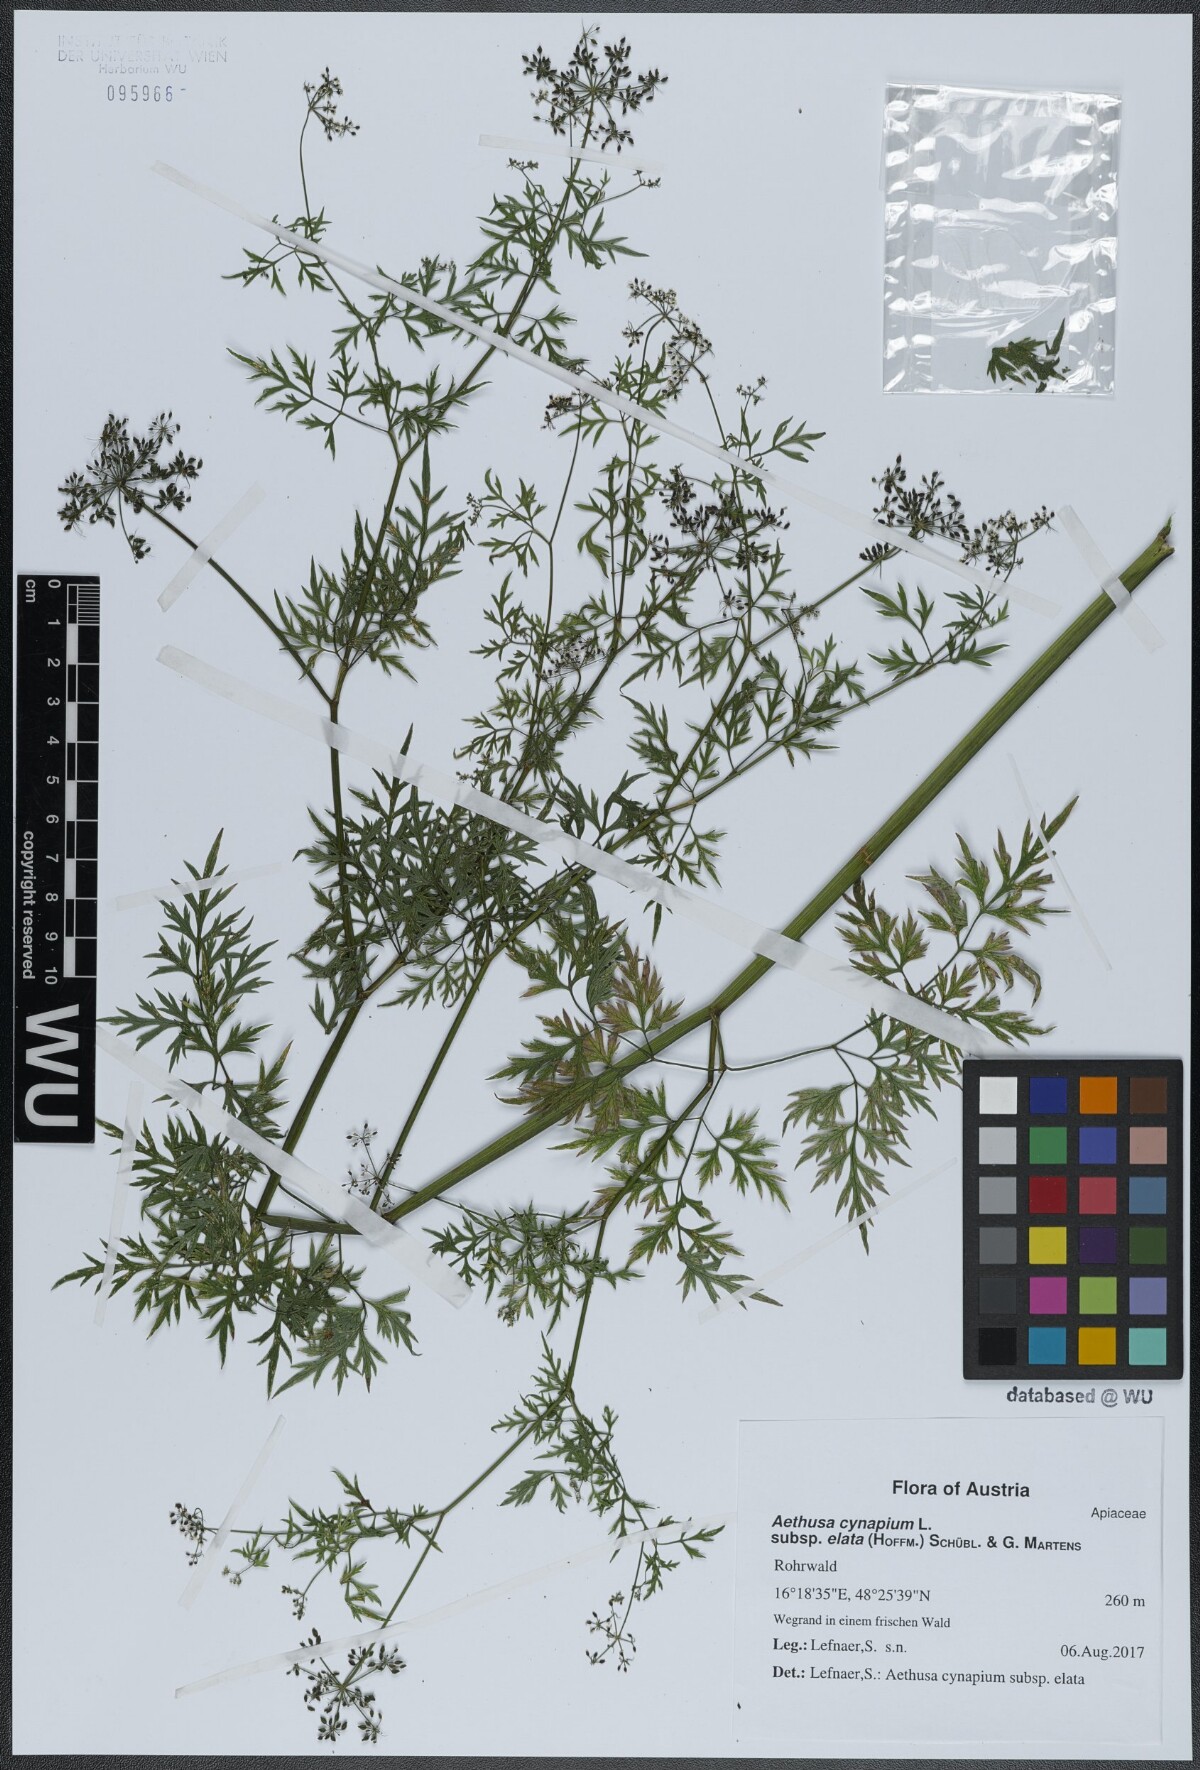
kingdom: Plantae
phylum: Tracheophyta
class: Magnoliopsida
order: Apiales
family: Apiaceae
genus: Aethusa
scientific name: Aethusa cynapium
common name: Fool's parsley
